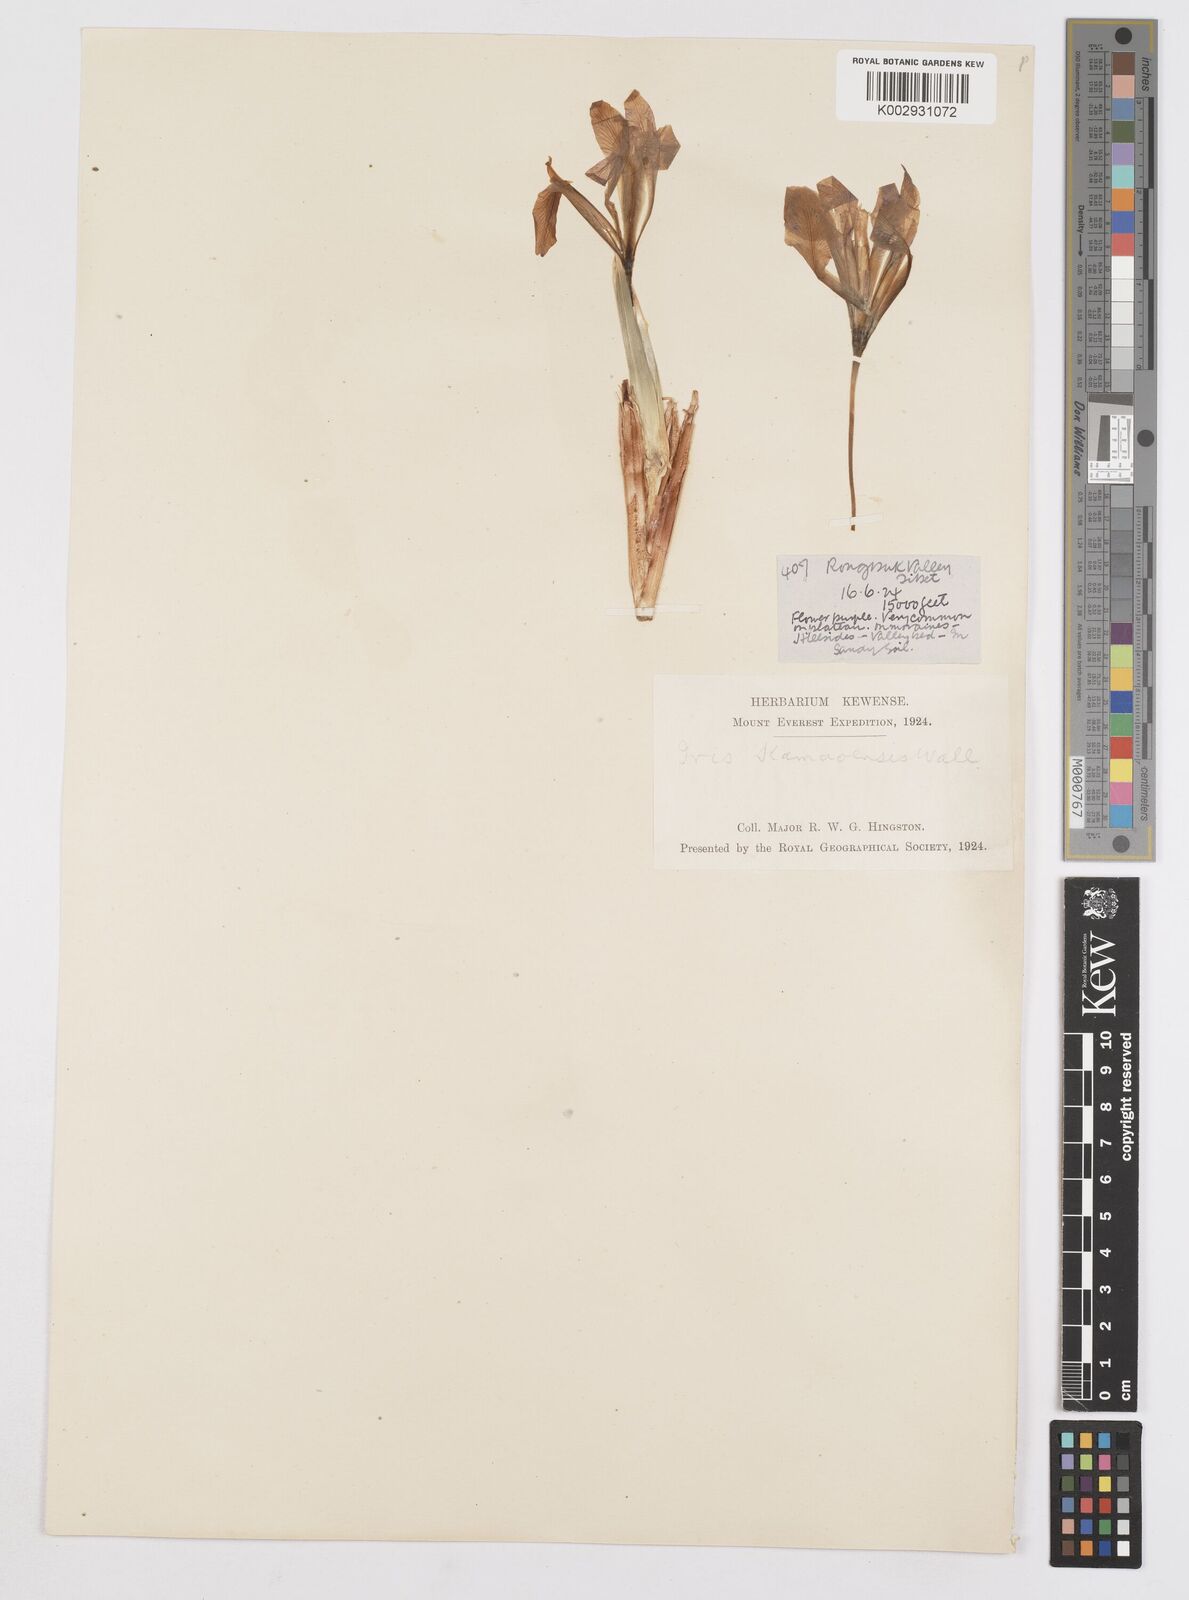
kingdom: Plantae
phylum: Tracheophyta
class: Liliopsida
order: Asparagales
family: Iridaceae
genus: Iris
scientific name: Iris tenuifolia
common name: Slender-leaf iris
